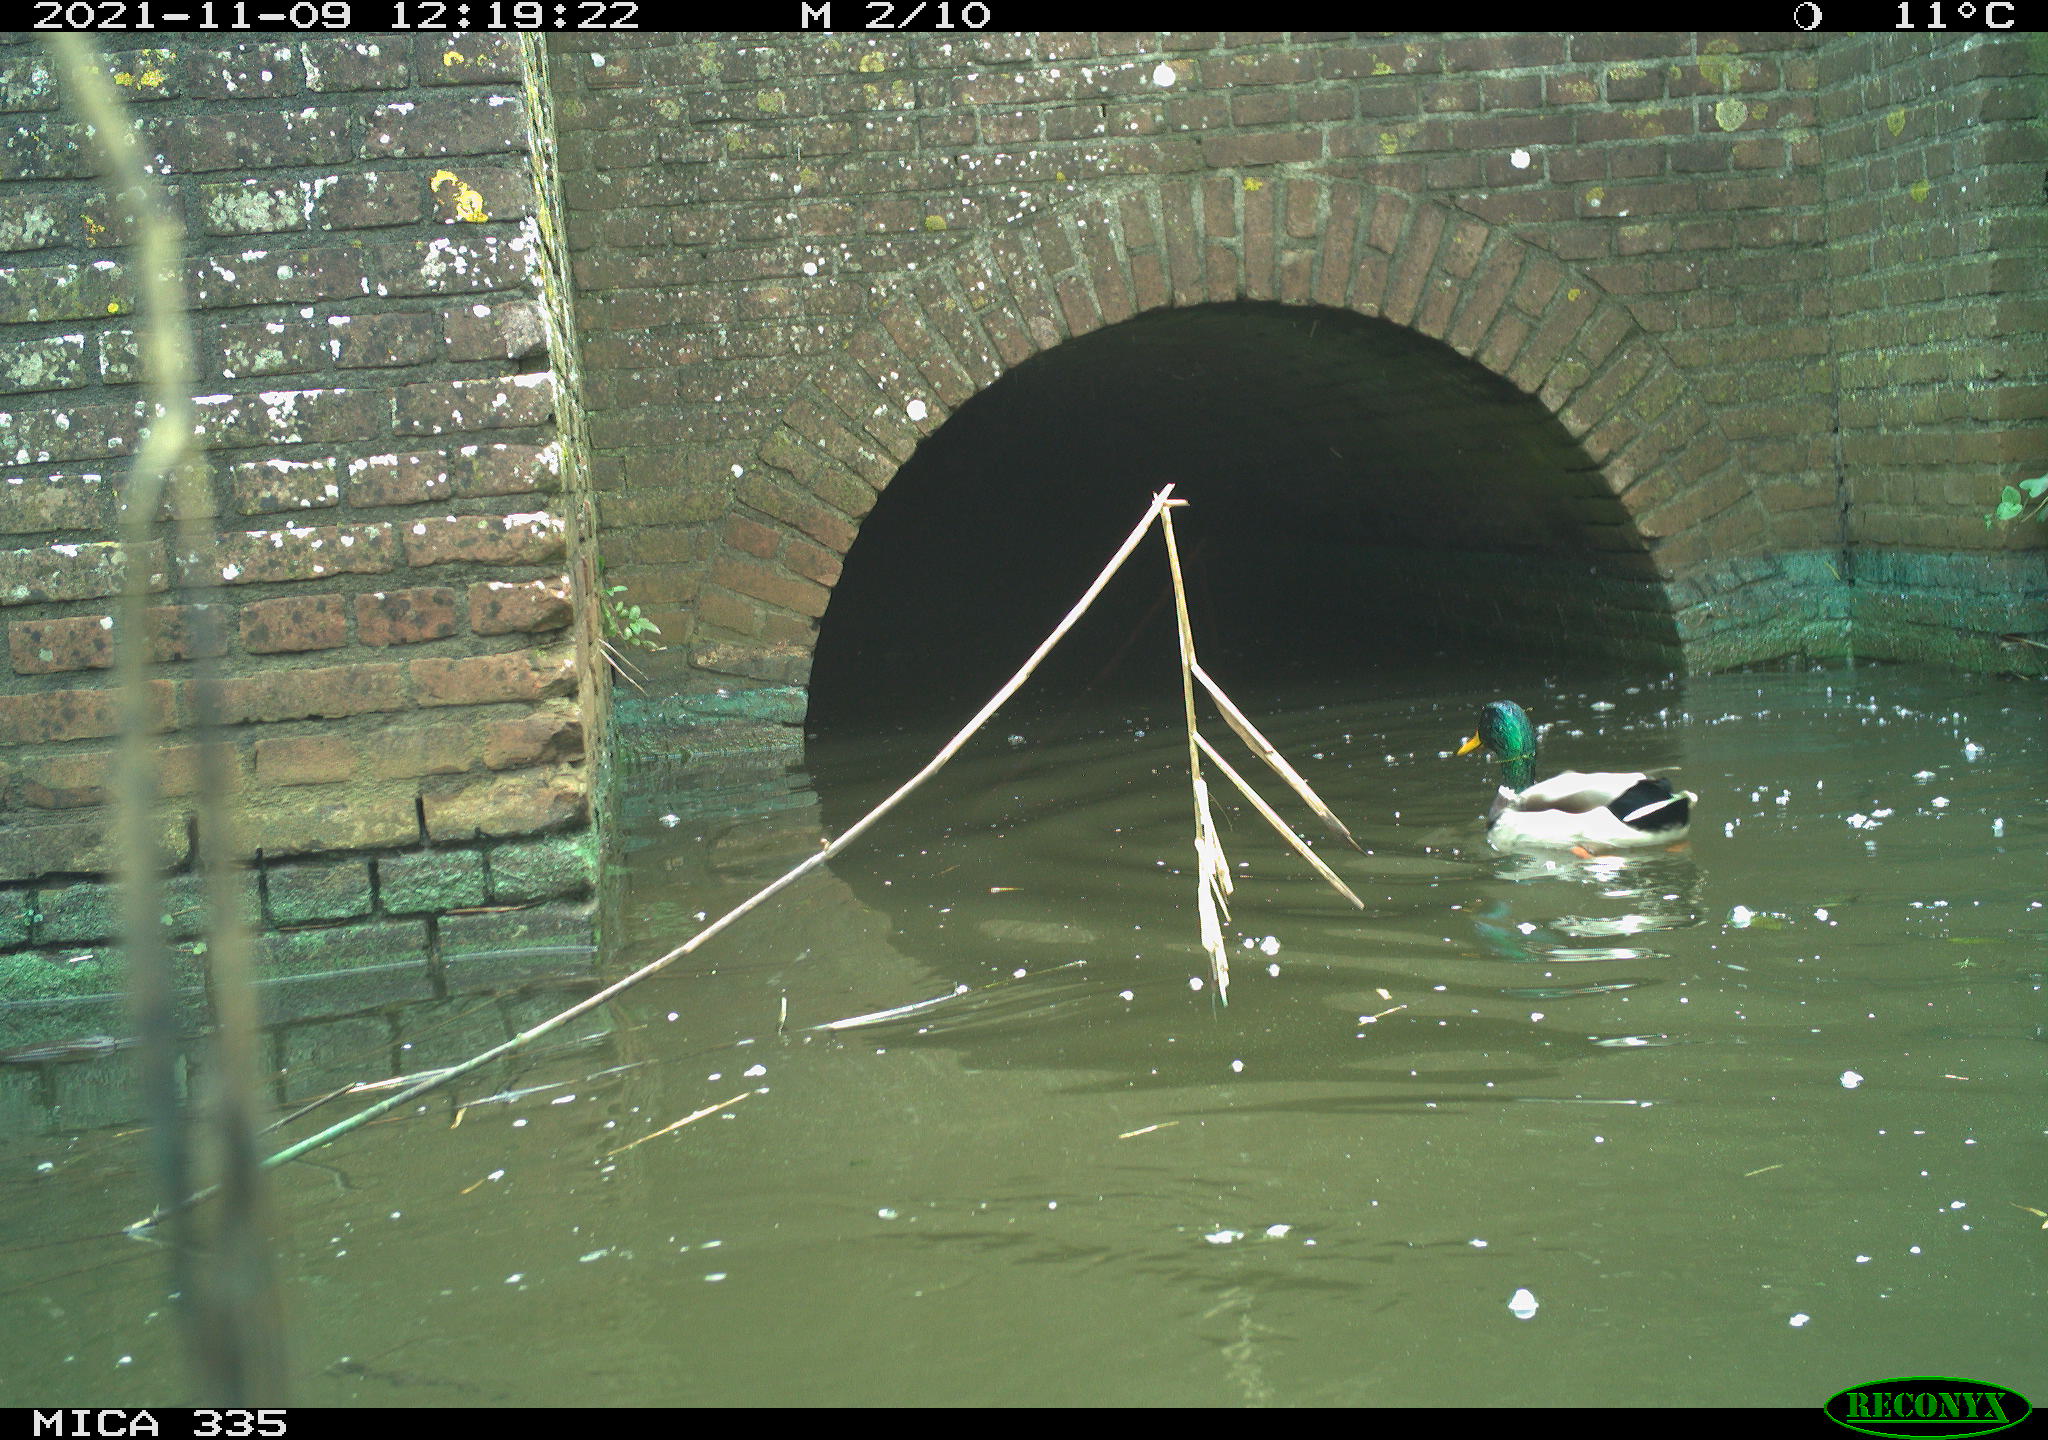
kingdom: Animalia
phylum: Chordata
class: Aves
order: Anseriformes
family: Anatidae
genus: Anas
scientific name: Anas platyrhynchos
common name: Mallard
